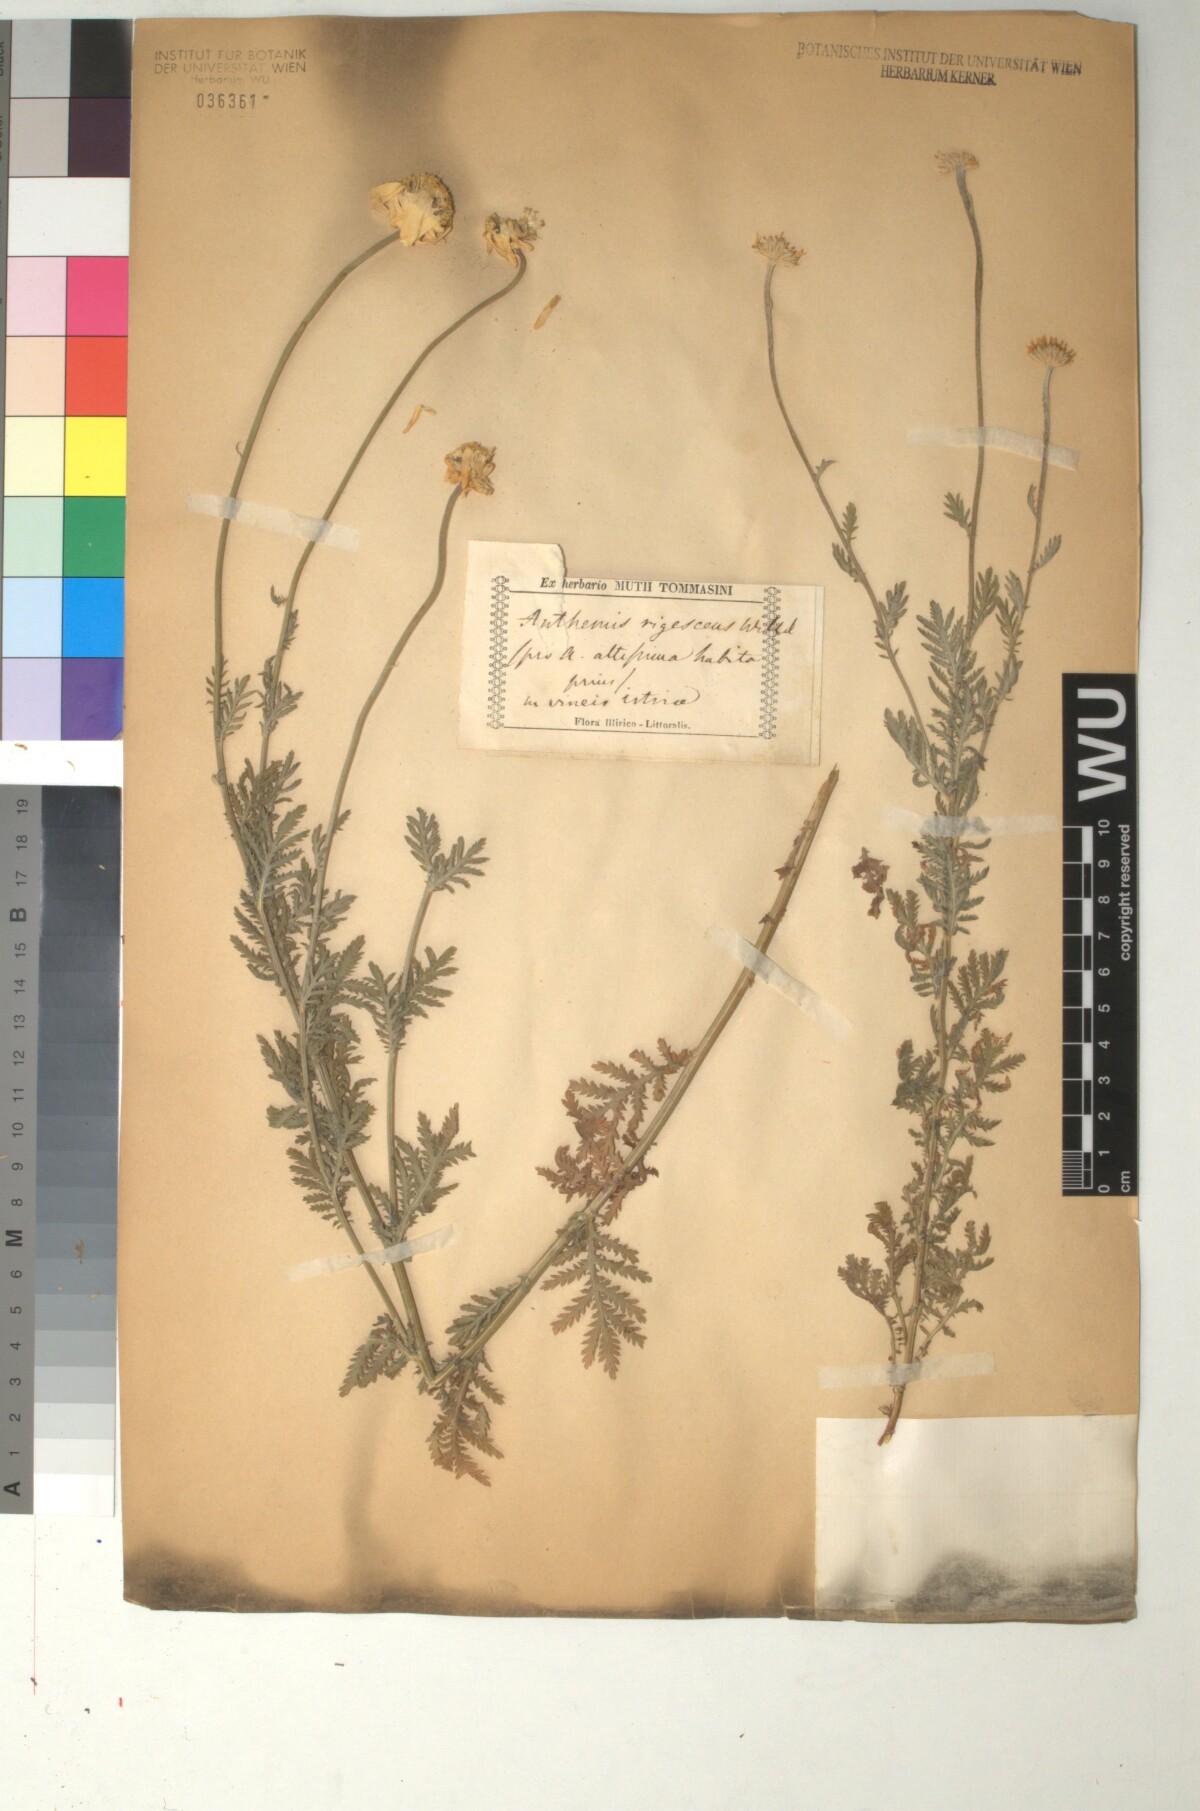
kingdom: Plantae
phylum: Tracheophyta
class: Magnoliopsida
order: Asterales
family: Asteraceae
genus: Cota
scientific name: Cota macrantha
